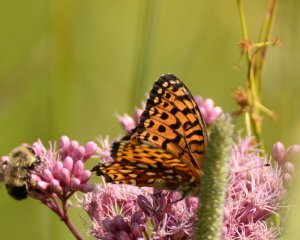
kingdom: Animalia
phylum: Arthropoda
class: Insecta
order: Lepidoptera
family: Nymphalidae
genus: Speyeria
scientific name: Speyeria atlantis
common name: Atlantis Fritillary
